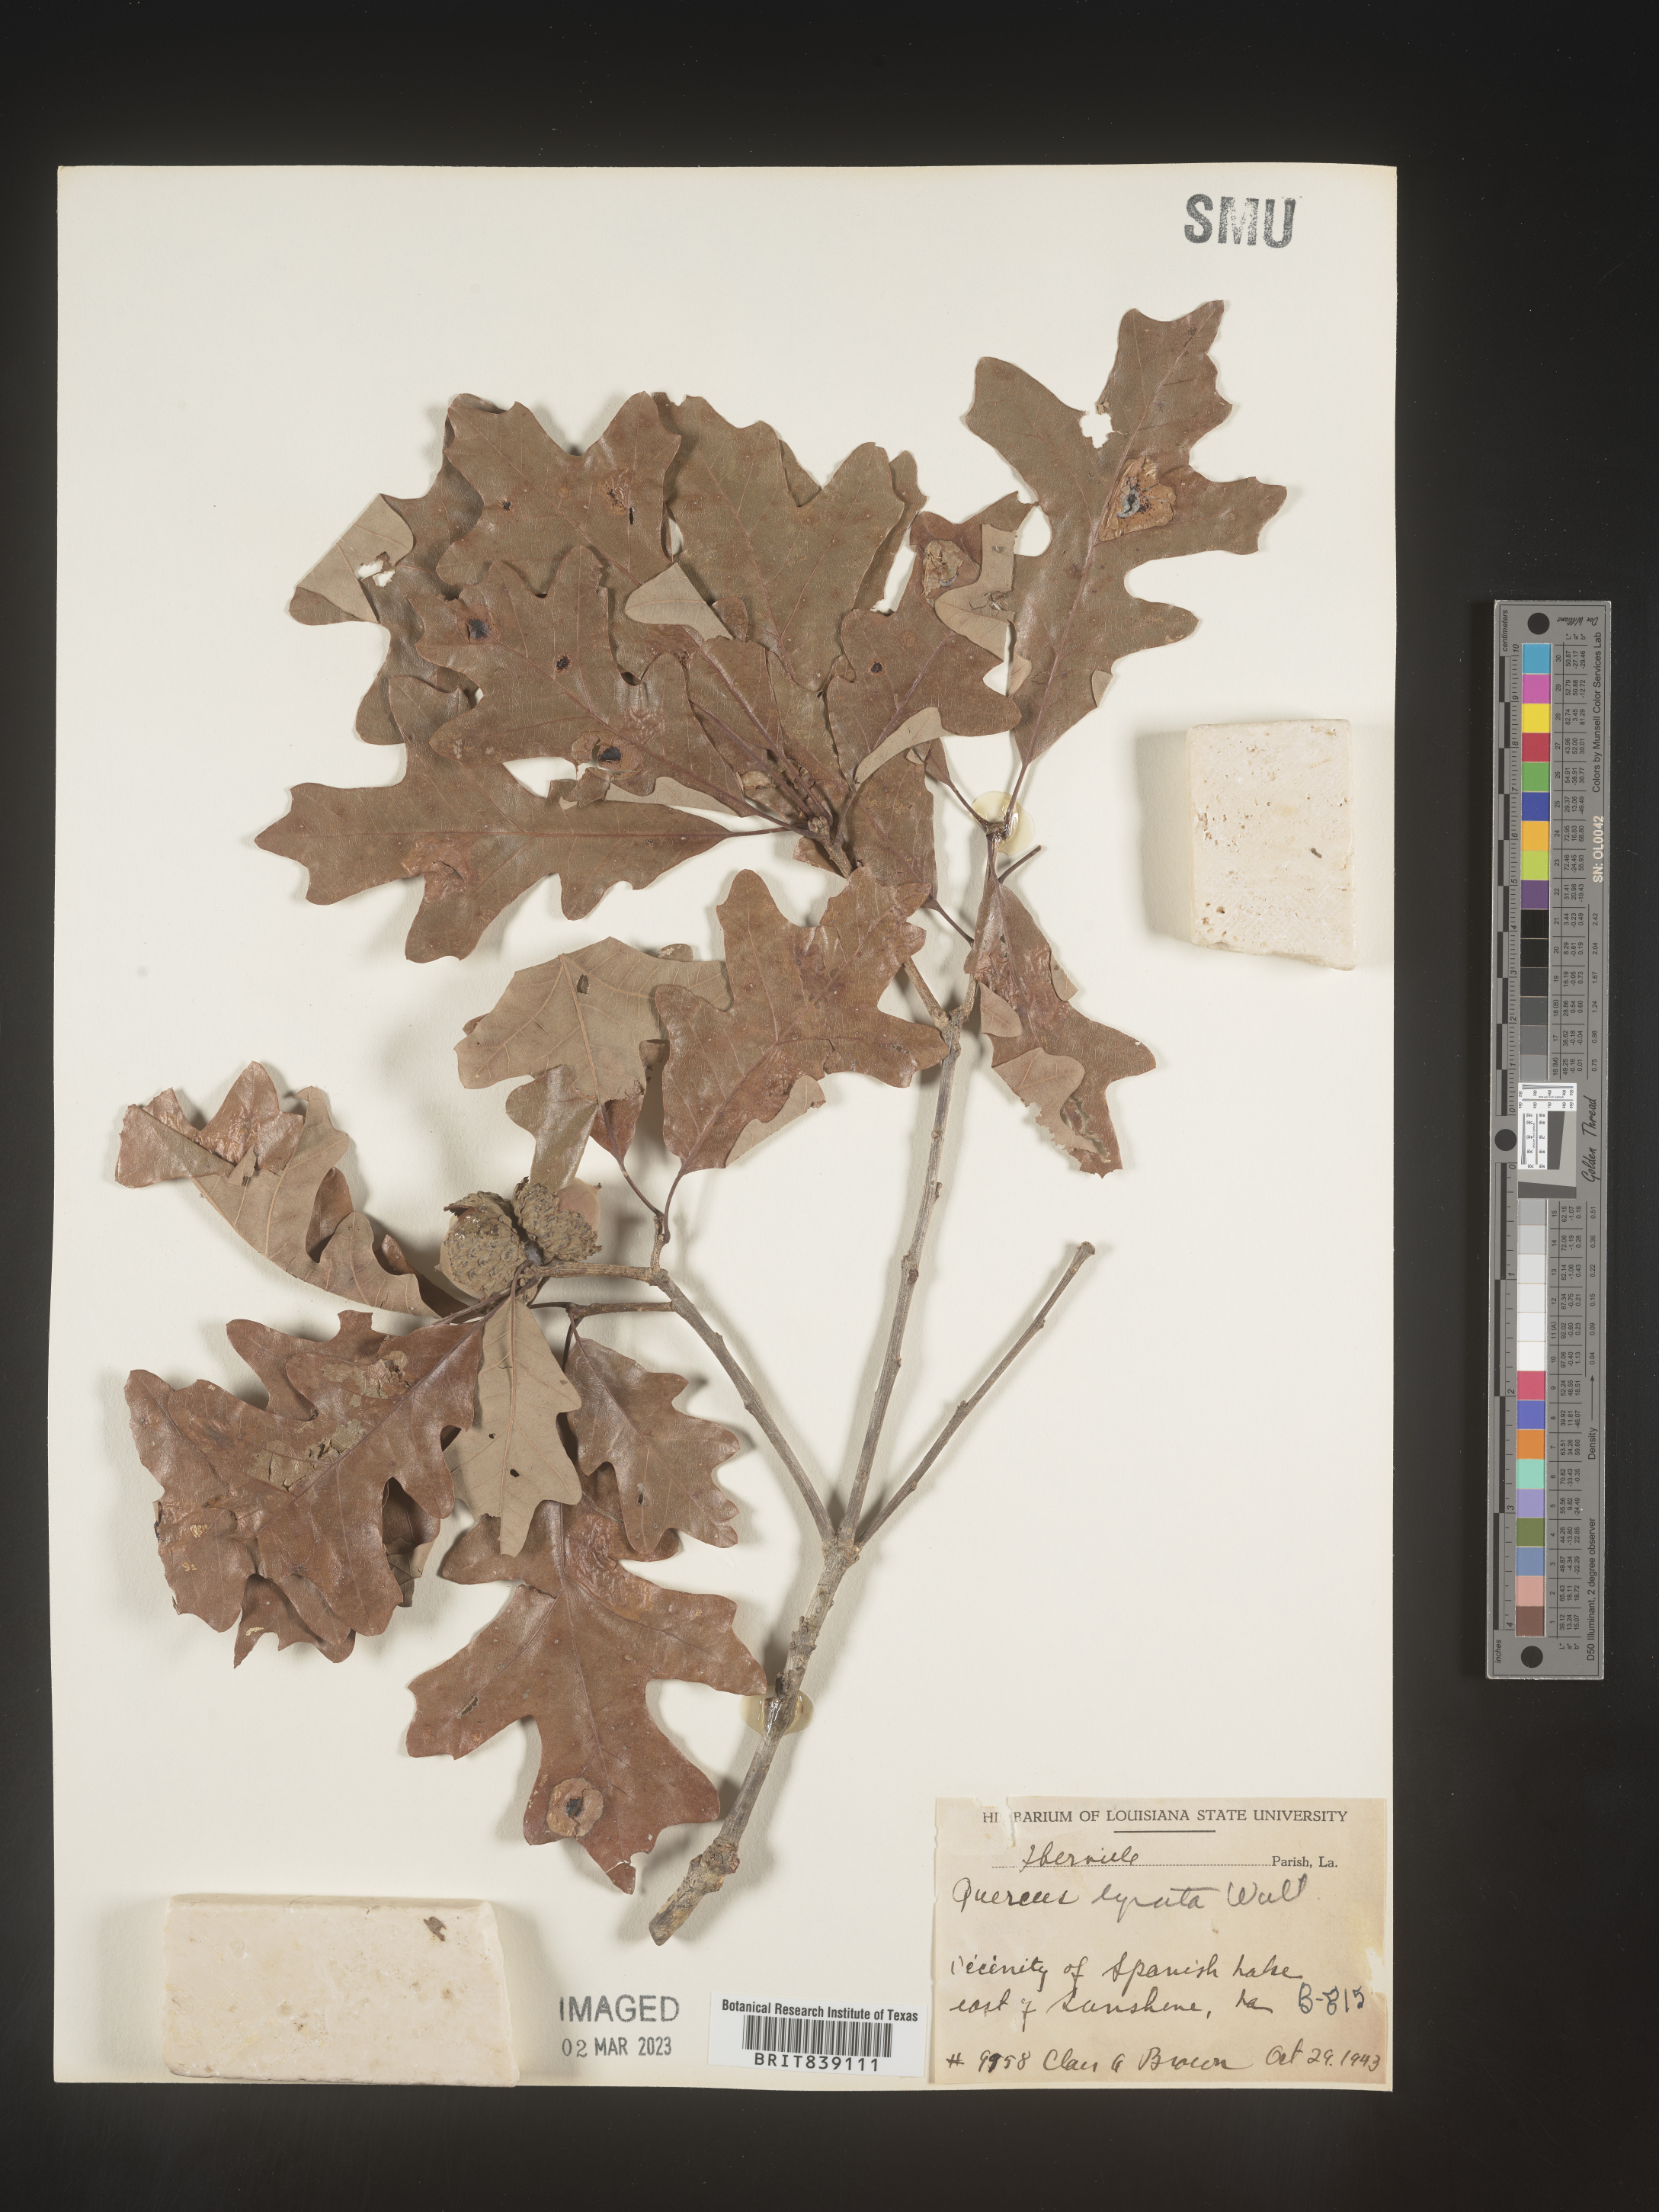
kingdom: Plantae
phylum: Tracheophyta
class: Magnoliopsida
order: Fagales
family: Fagaceae
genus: Quercus
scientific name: Quercus lyrata
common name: Overcup oak
